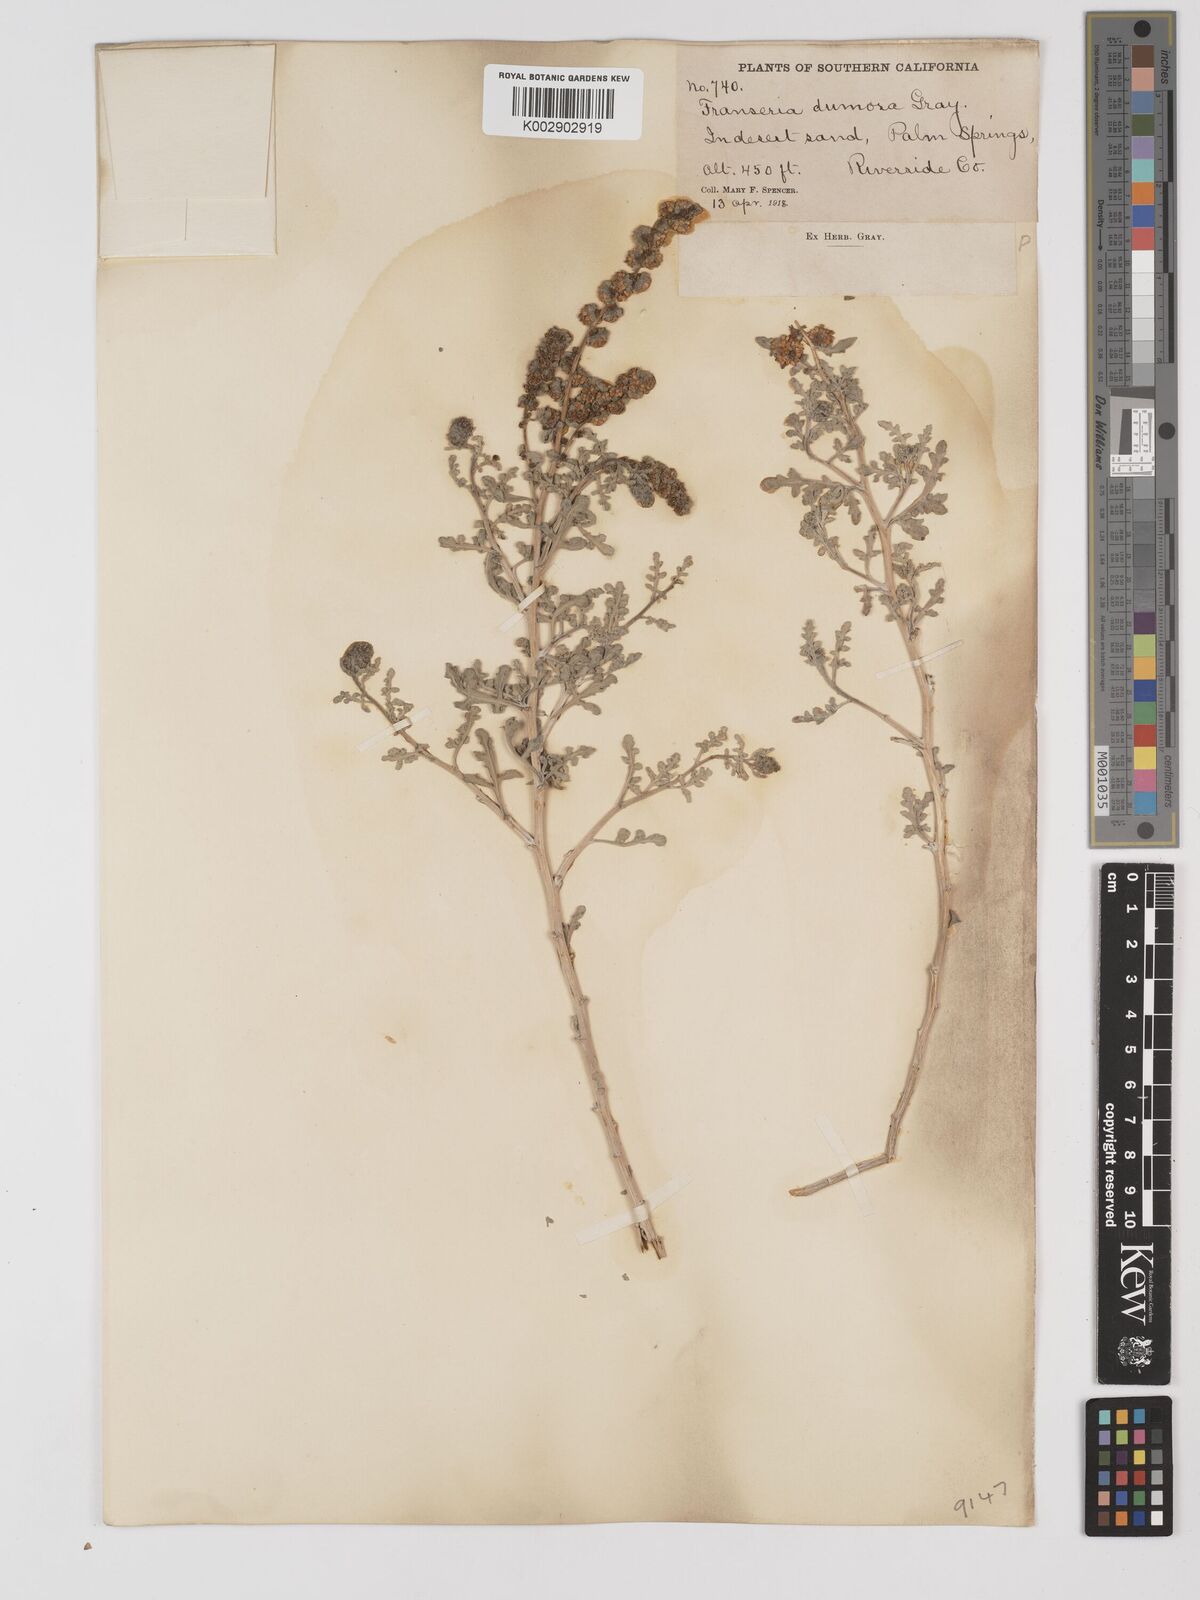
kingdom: Plantae
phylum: Tracheophyta
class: Magnoliopsida
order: Asterales
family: Asteraceae
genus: Ambrosia
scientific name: Ambrosia dumosa
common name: Bur-sage
